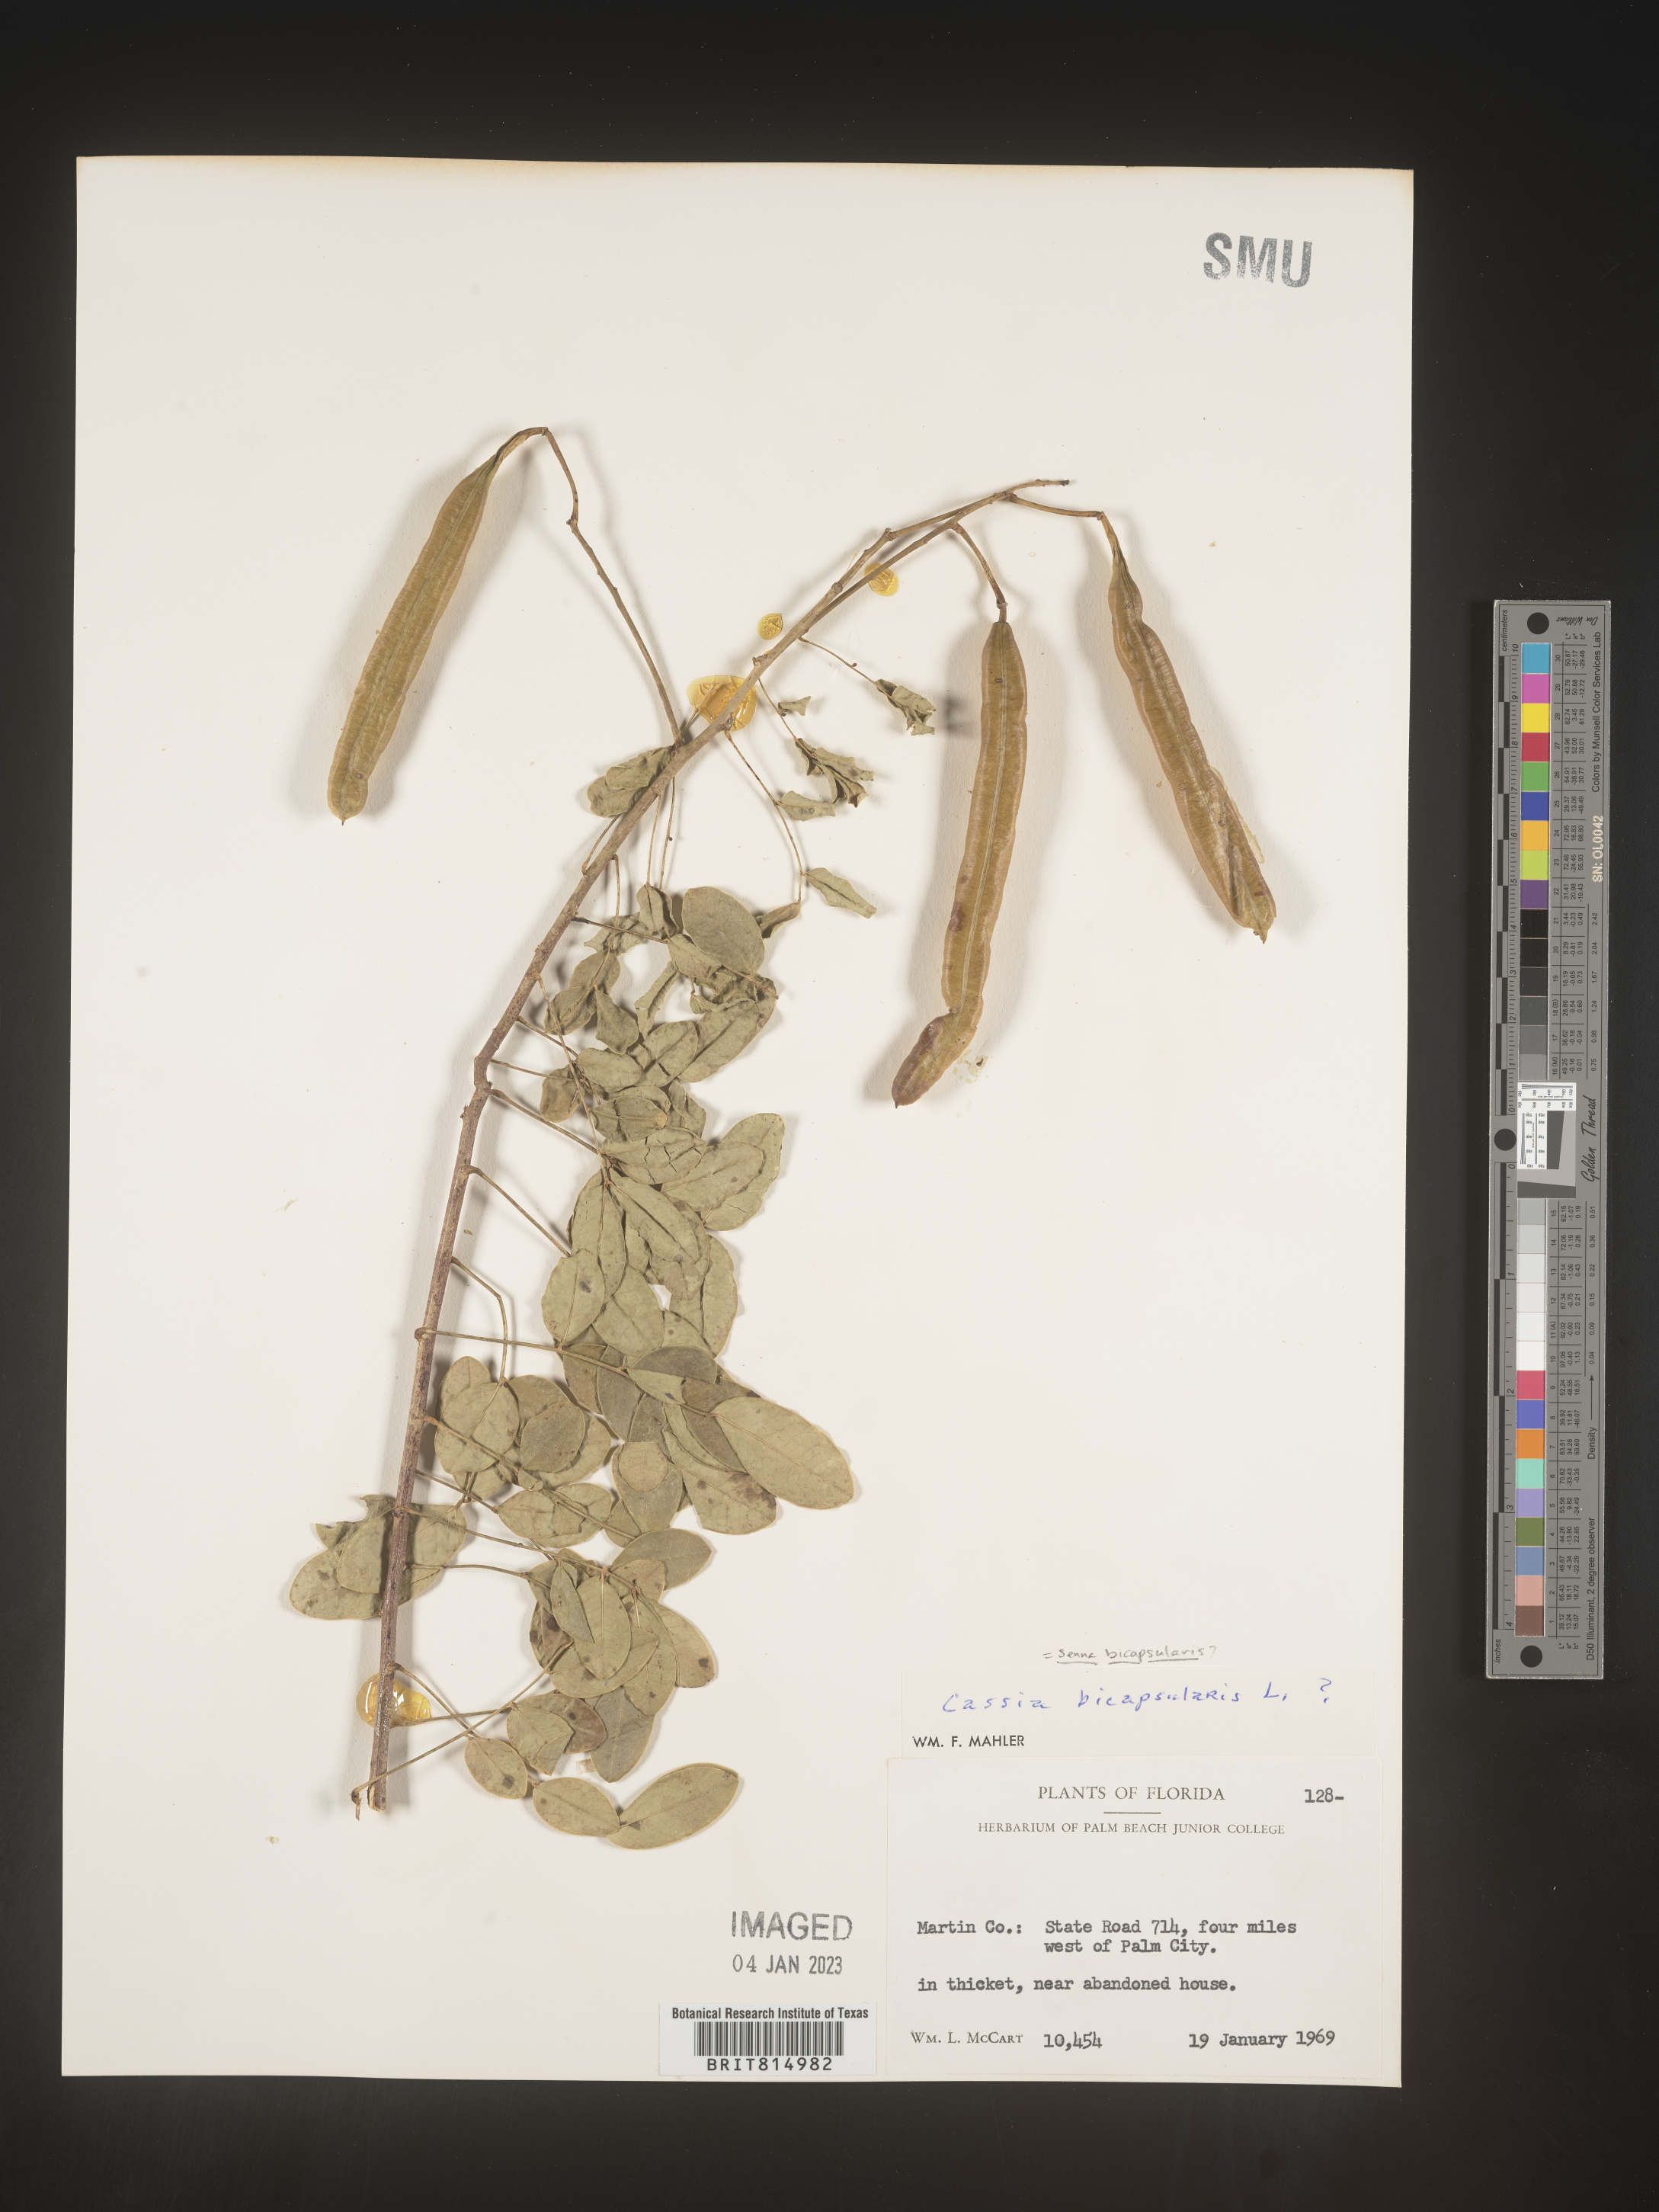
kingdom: Plantae
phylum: Tracheophyta
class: Magnoliopsida
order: Fabales
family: Fabaceae
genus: Cassia
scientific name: Cassia
